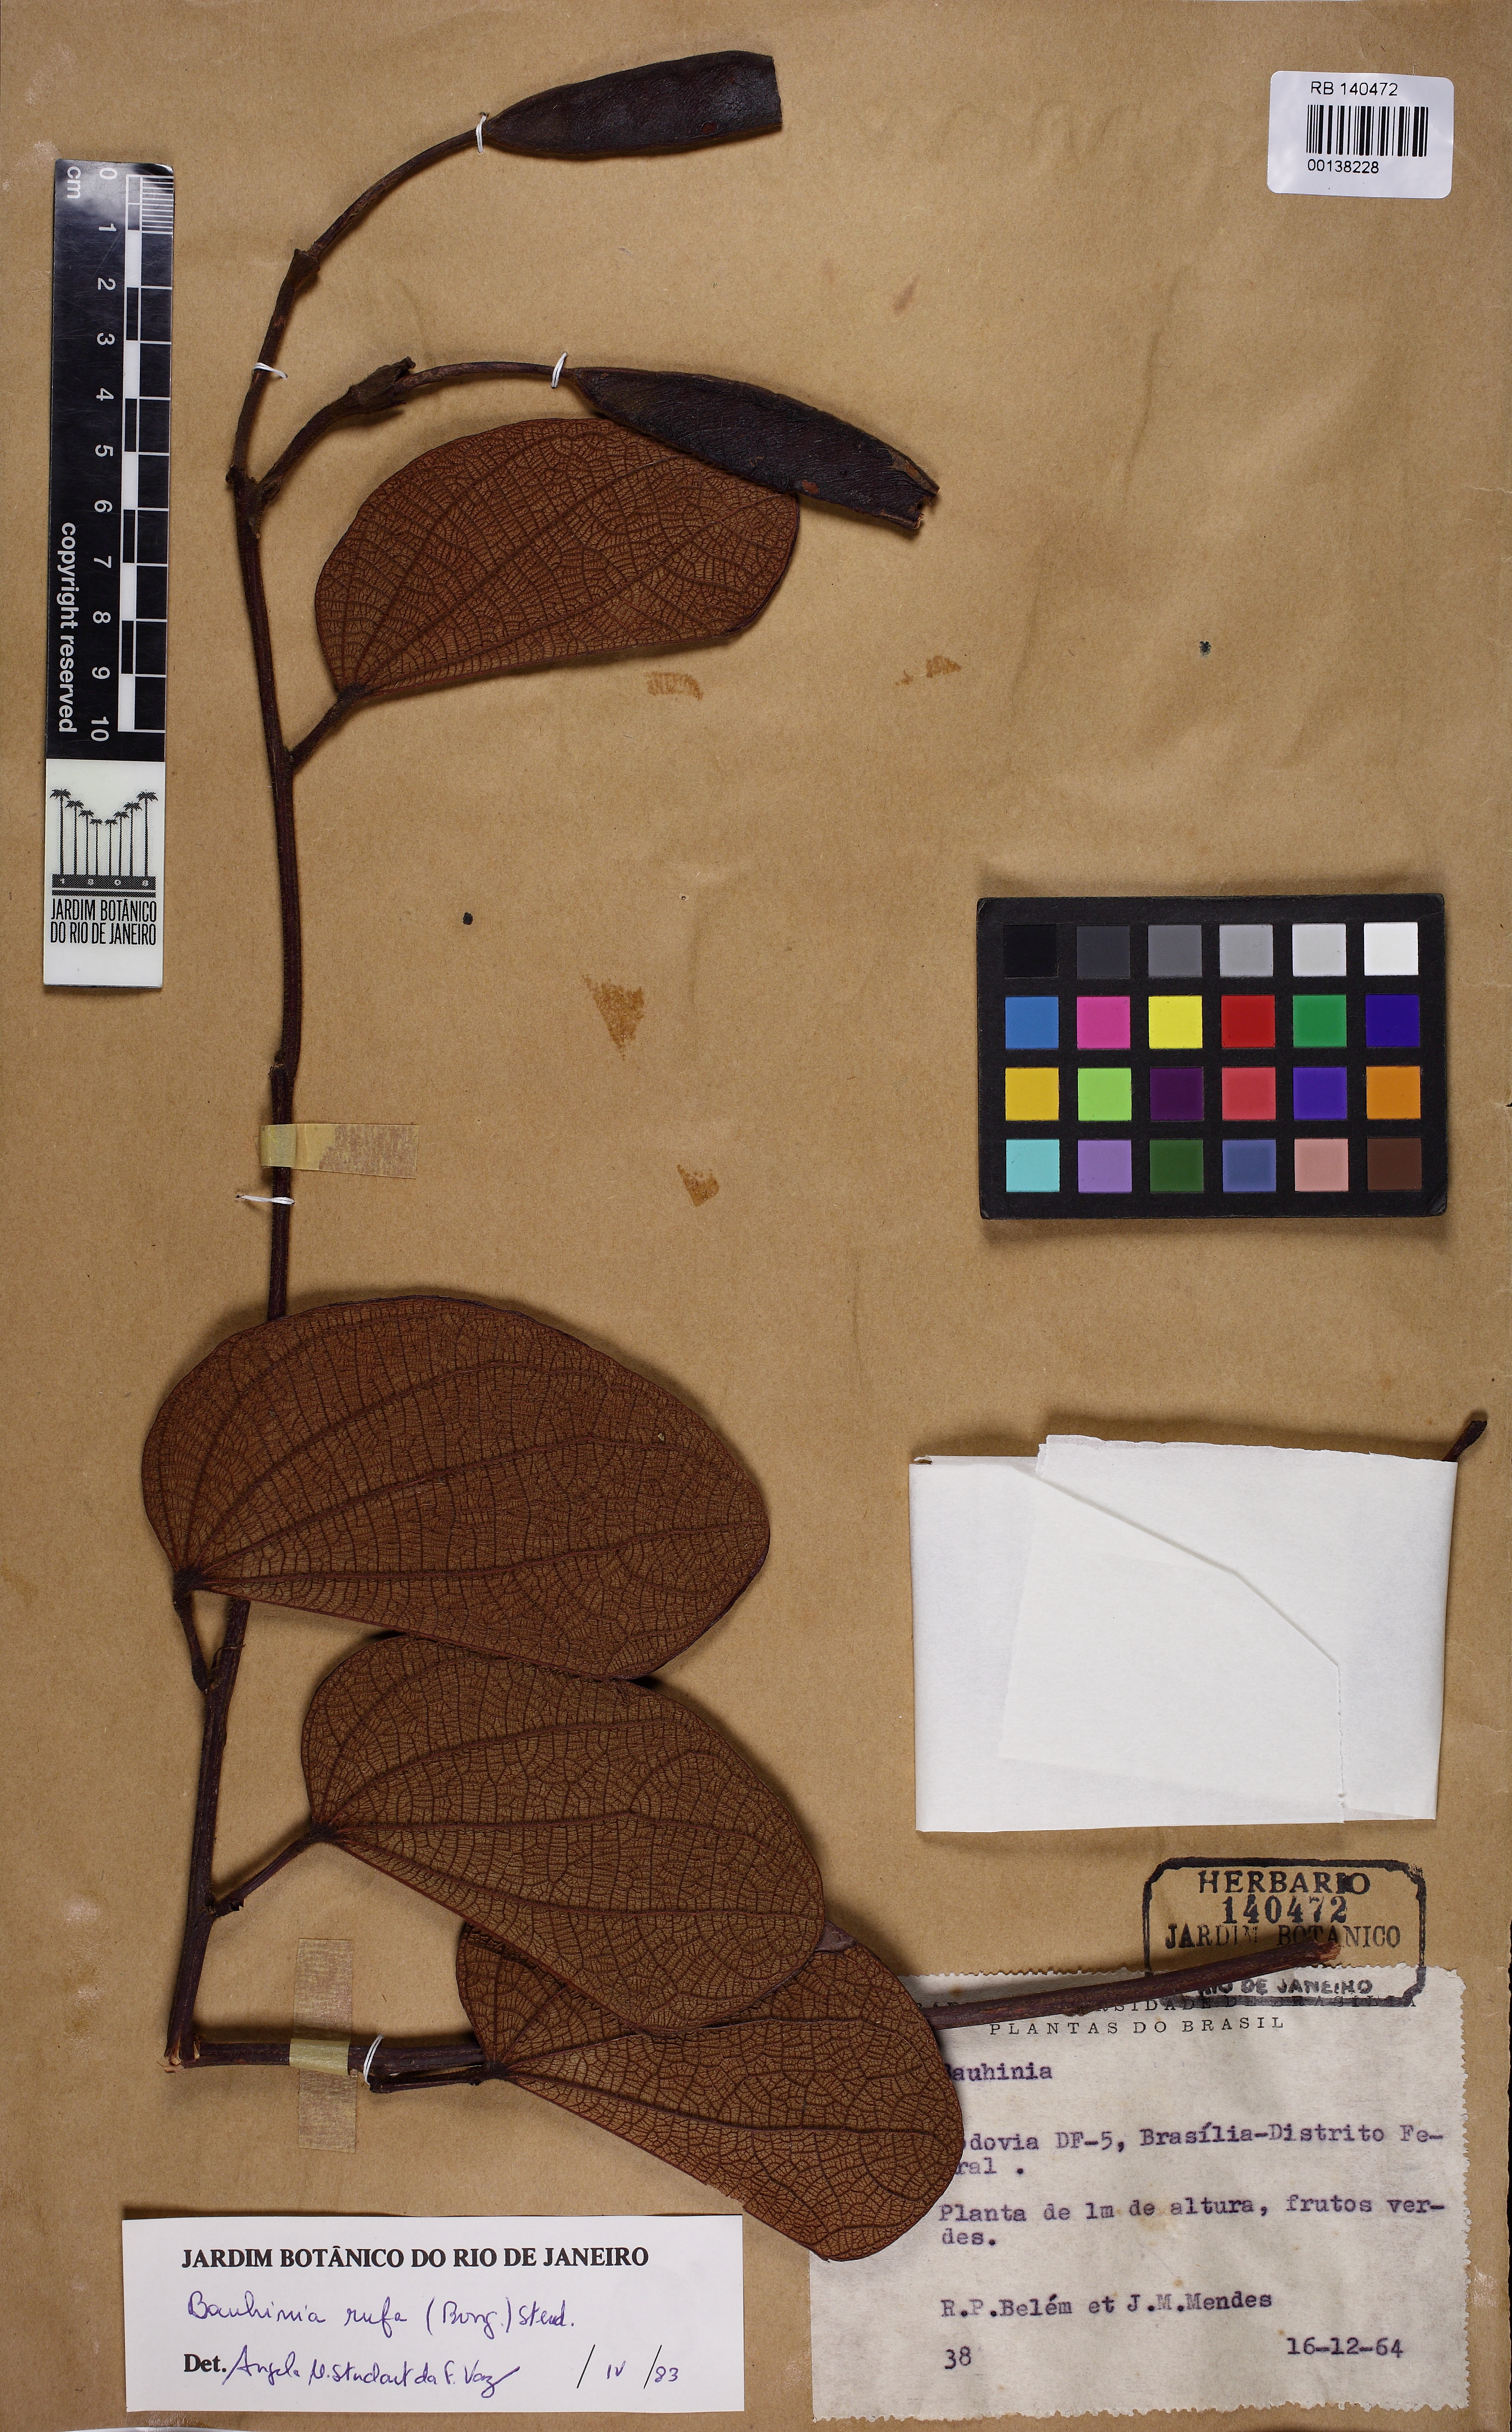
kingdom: Plantae
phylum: Tracheophyta
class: Magnoliopsida
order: Fabales
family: Fabaceae
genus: Bauhinia
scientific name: Bauhinia rufa
